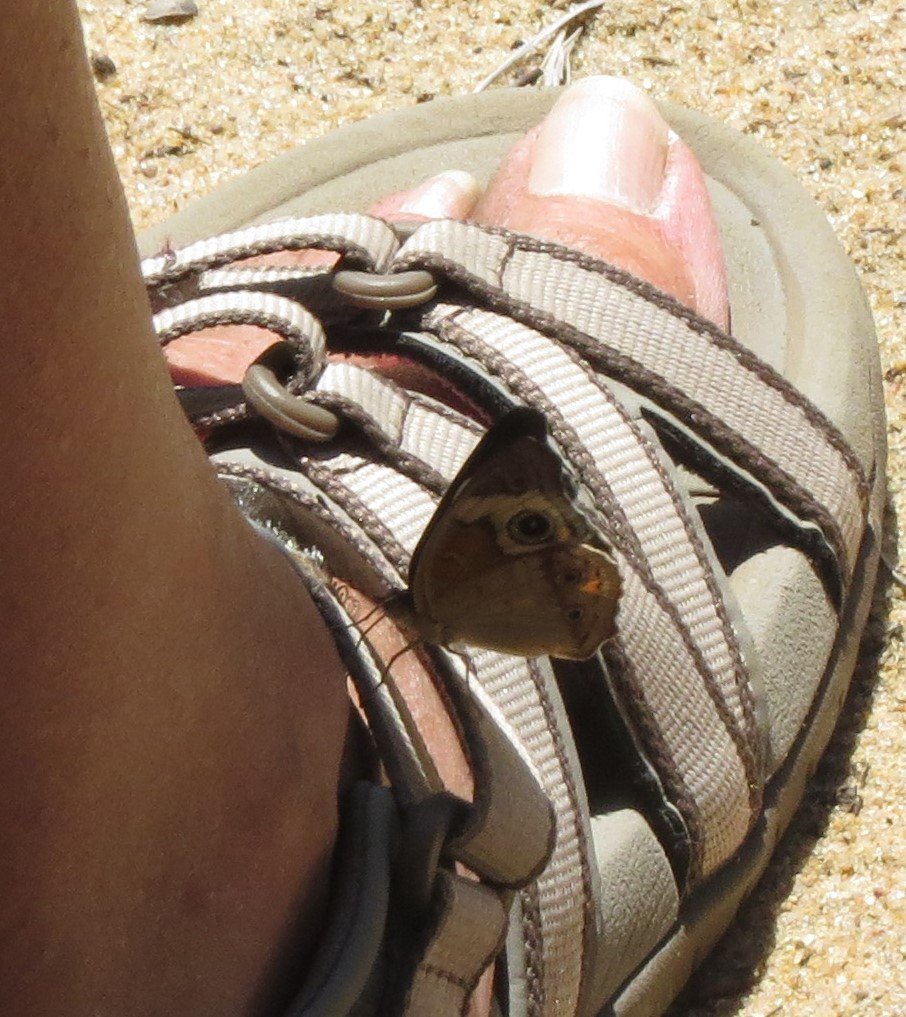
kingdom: Animalia
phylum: Arthropoda
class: Insecta
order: Lepidoptera
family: Nymphalidae
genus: Junonia
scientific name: Junonia coenia
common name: Common Buckeye
